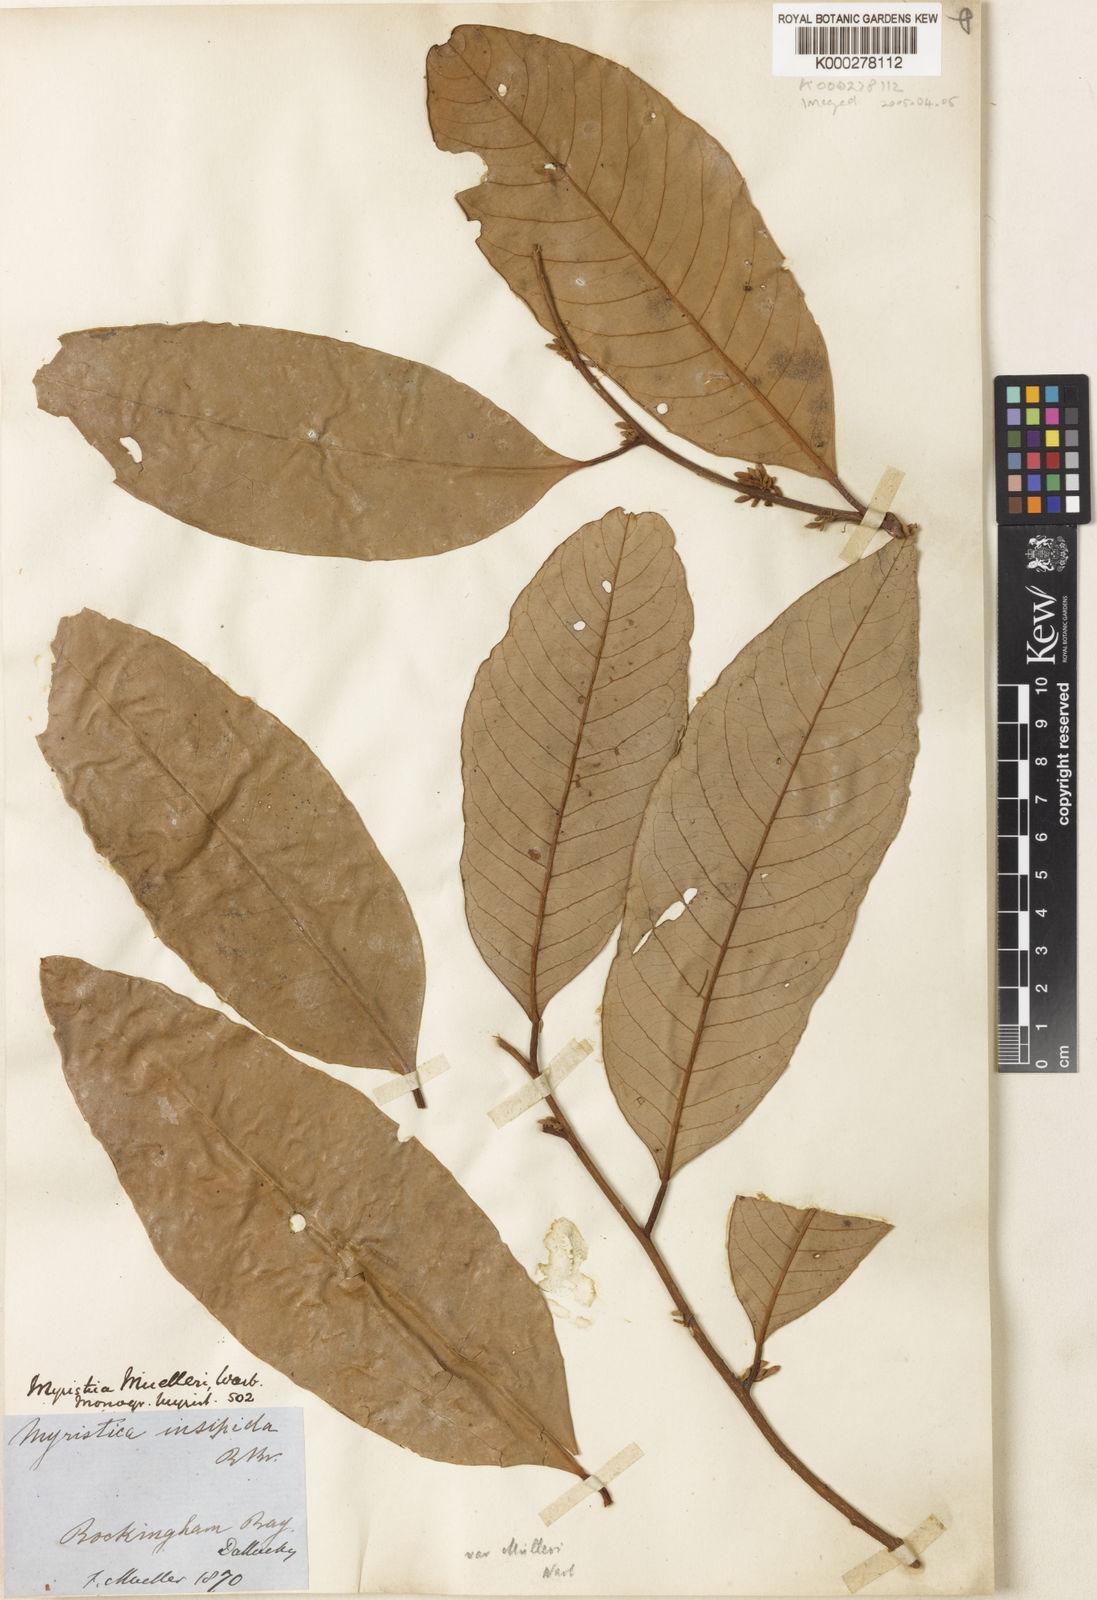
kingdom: Plantae
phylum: Tracheophyta
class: Magnoliopsida
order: Magnoliales
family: Myristicaceae
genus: Myristica
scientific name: Myristica insipida
